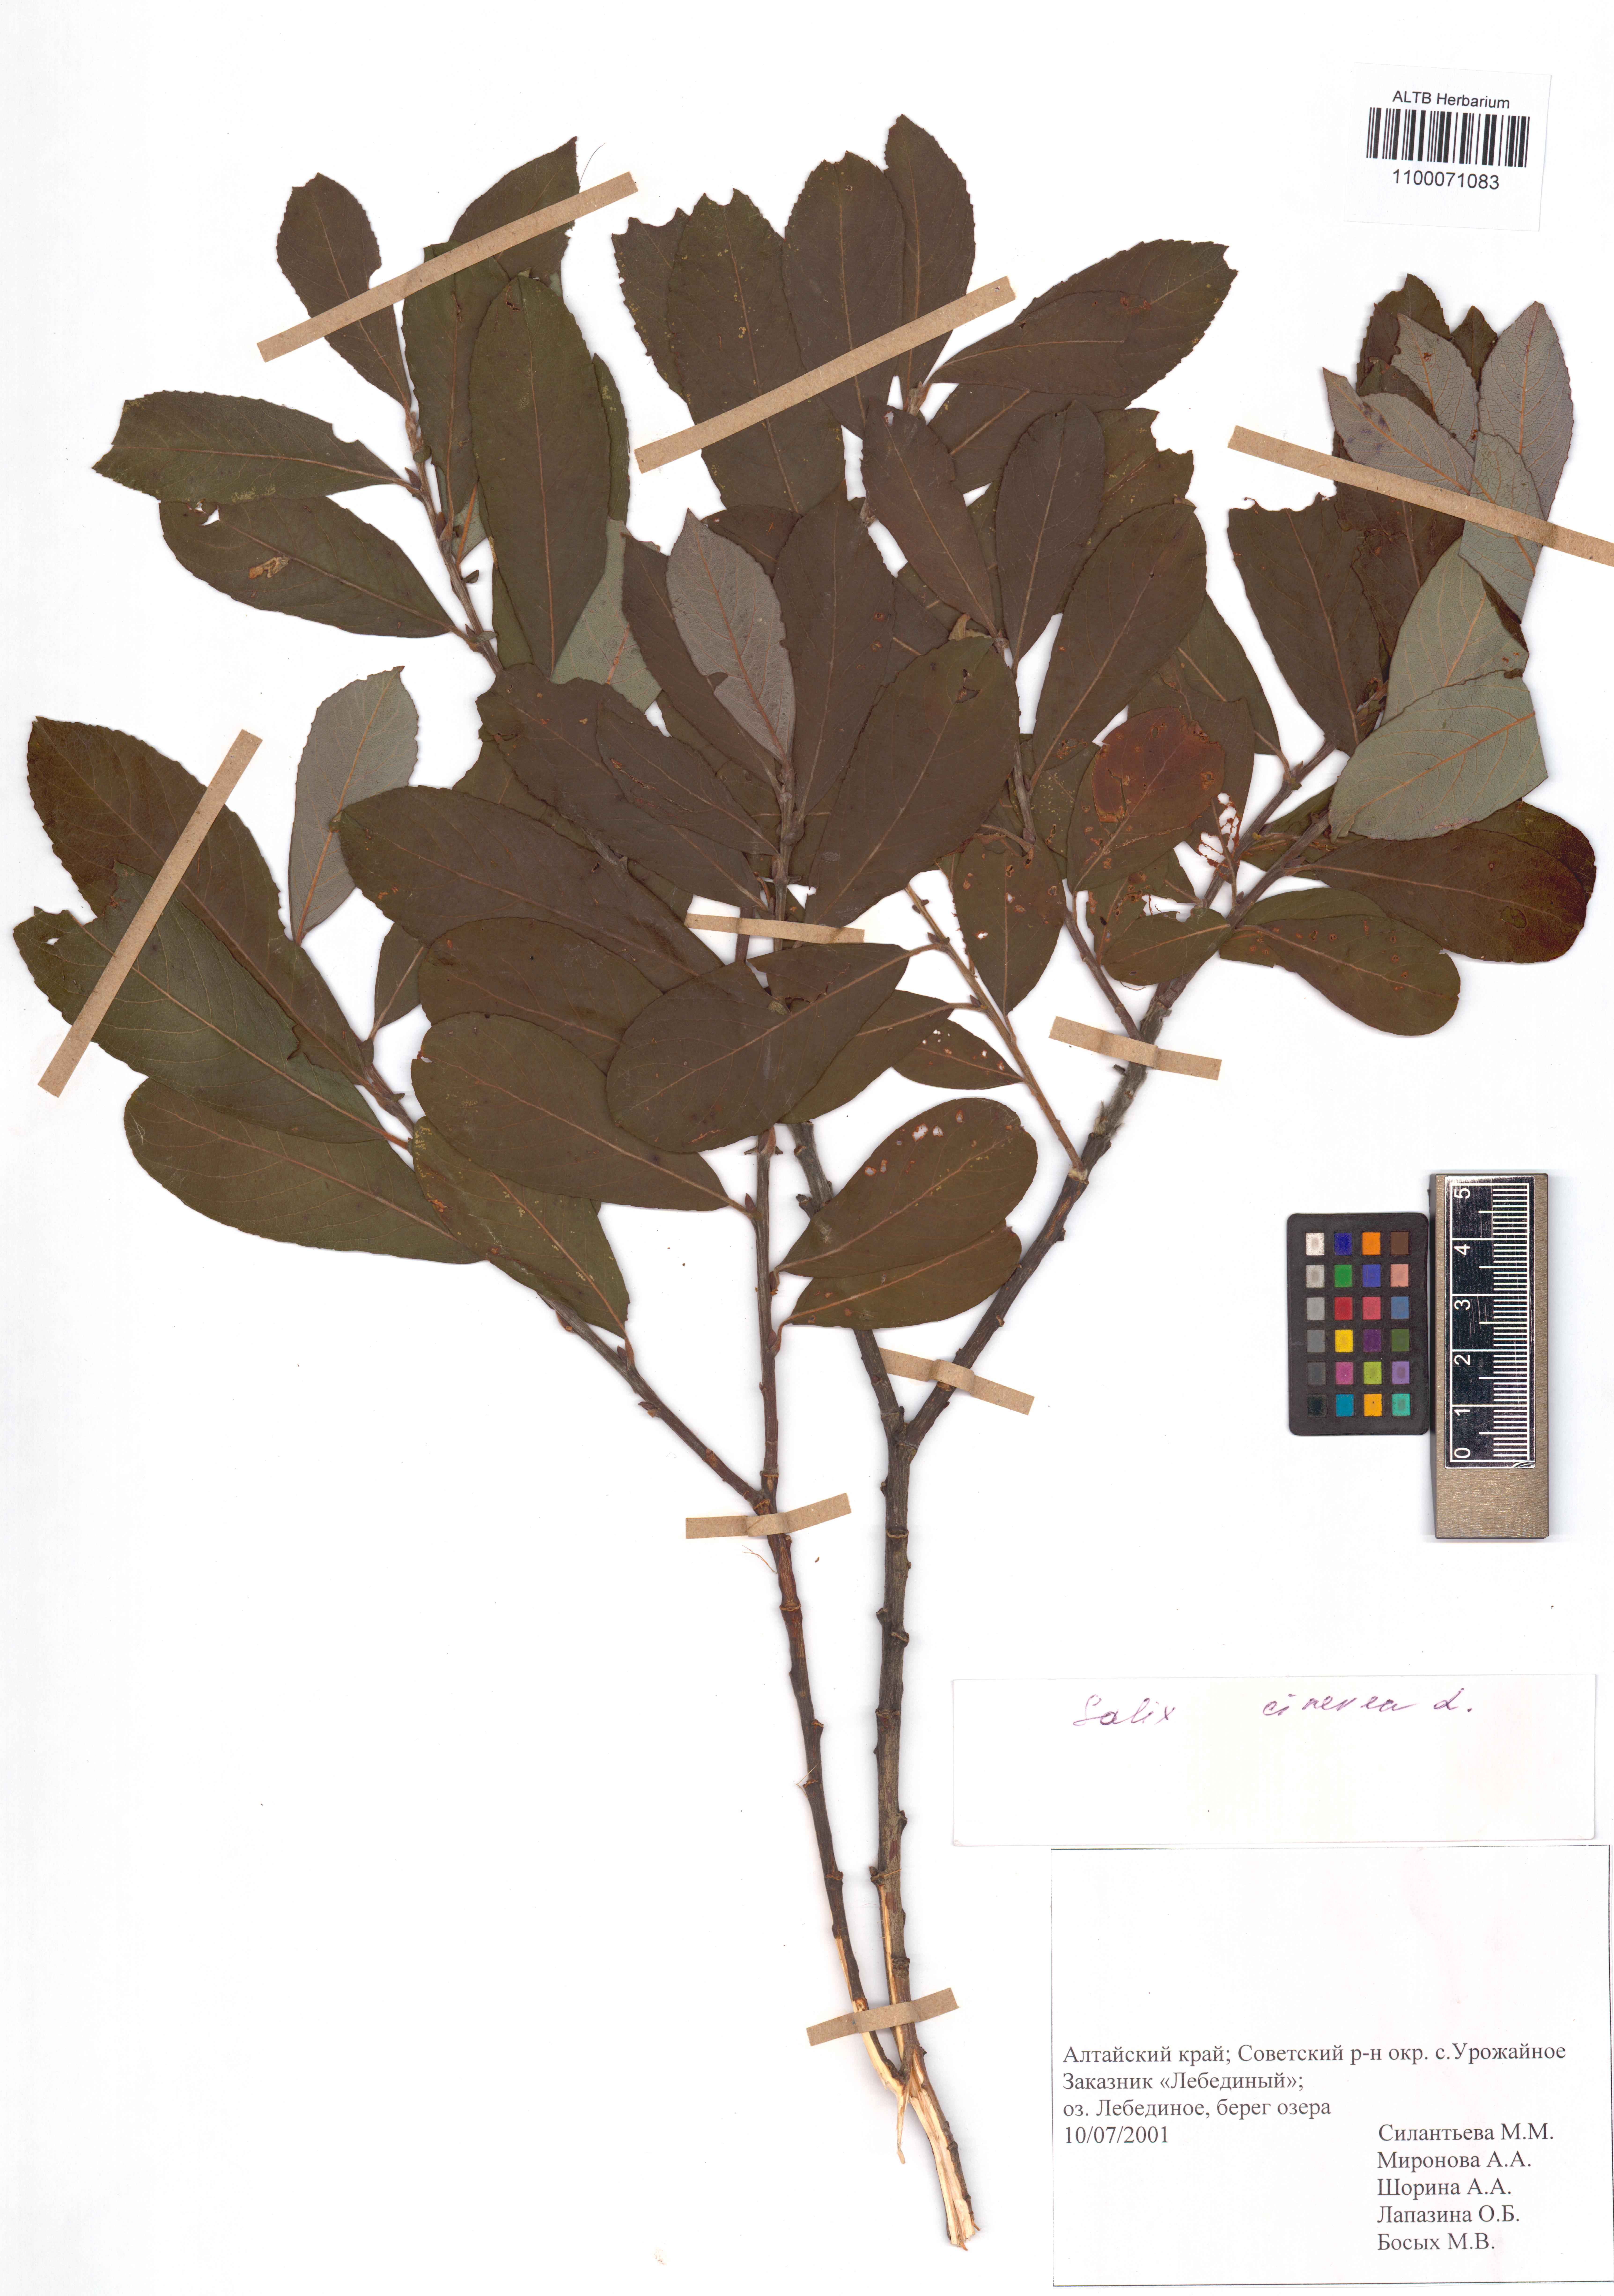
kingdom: Plantae
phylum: Tracheophyta
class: Magnoliopsida
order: Malpighiales
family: Salicaceae
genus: Salix
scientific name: Salix cinerea
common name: Common sallow
